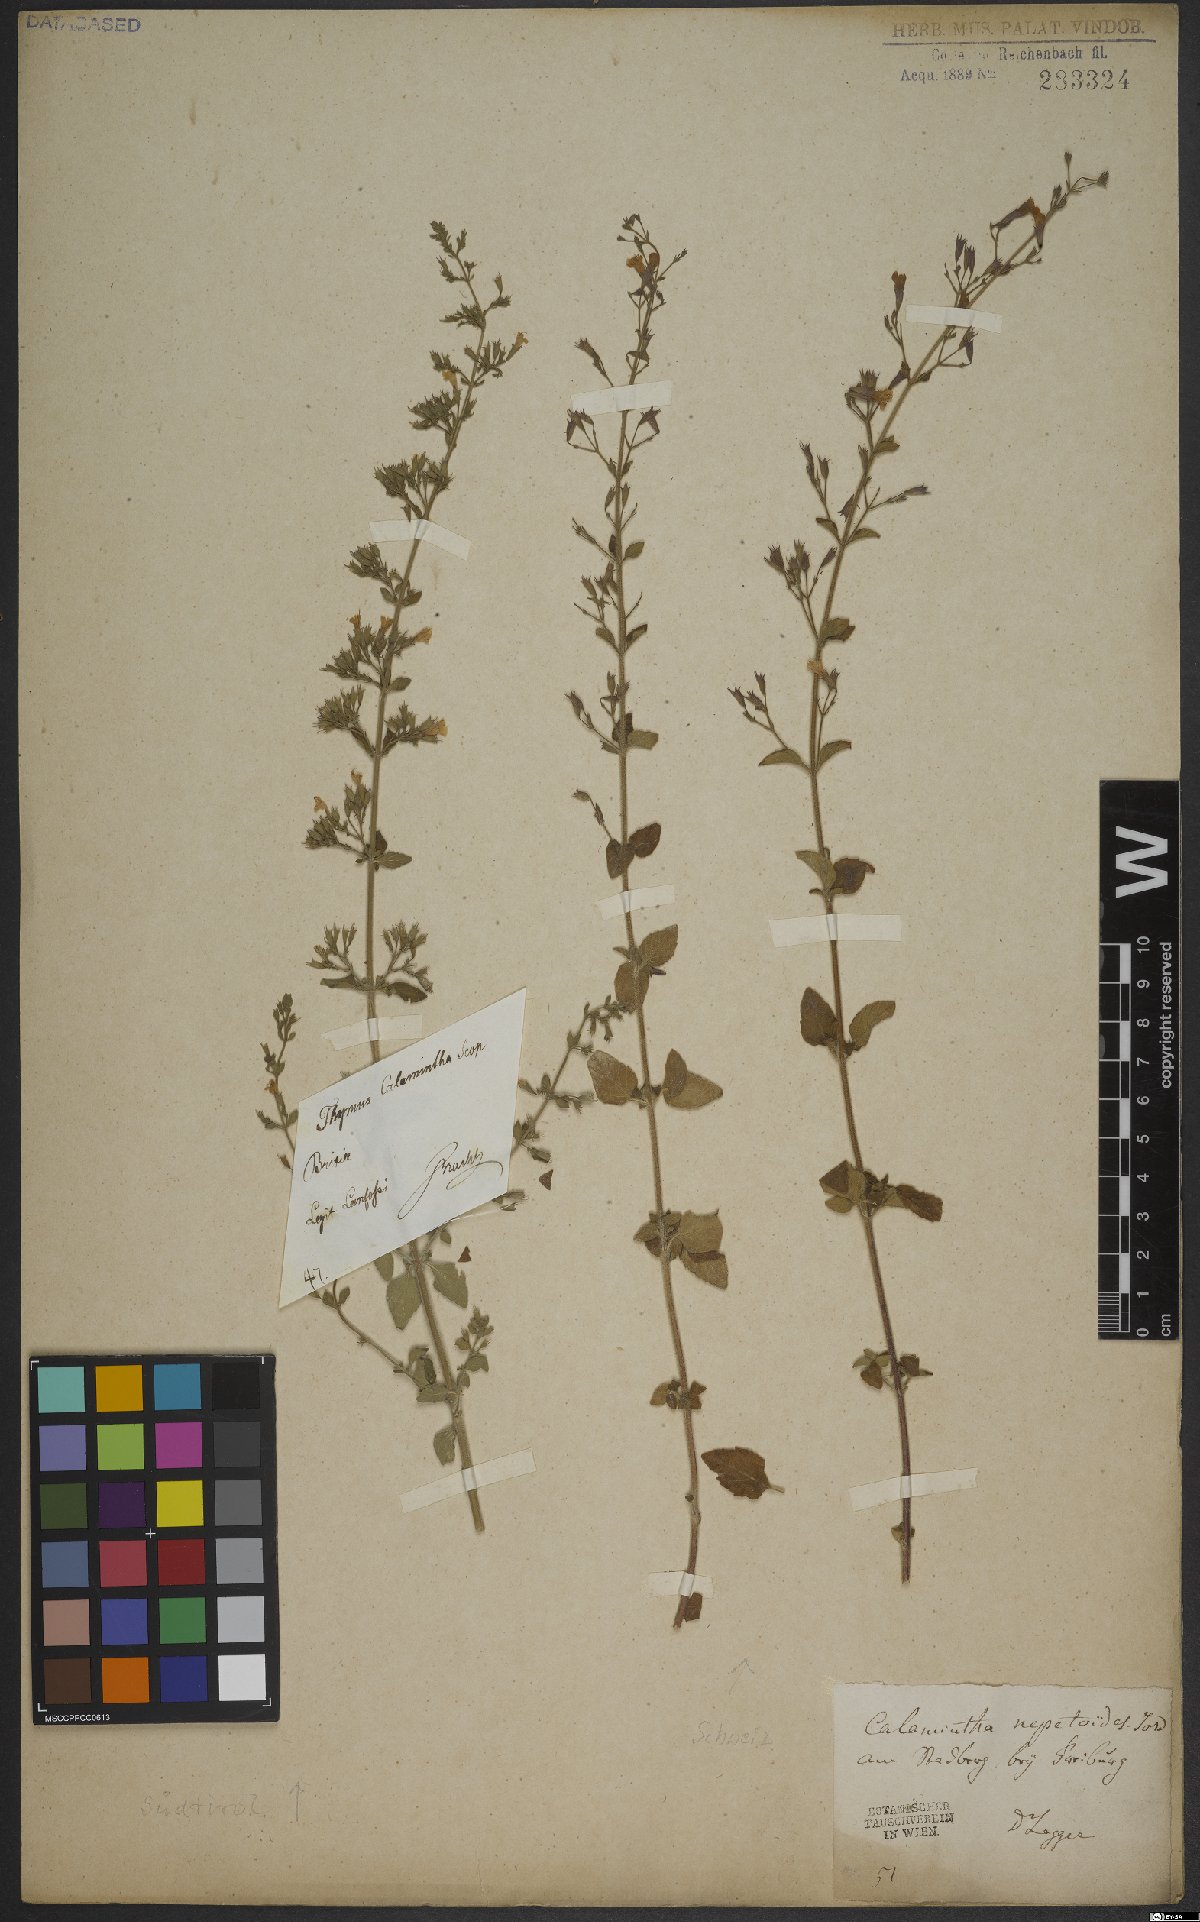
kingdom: Plantae
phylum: Tracheophyta
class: Magnoliopsida
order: Lamiales
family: Lamiaceae
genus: Clinopodium
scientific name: Clinopodium nepeta
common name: Lesser calamint
